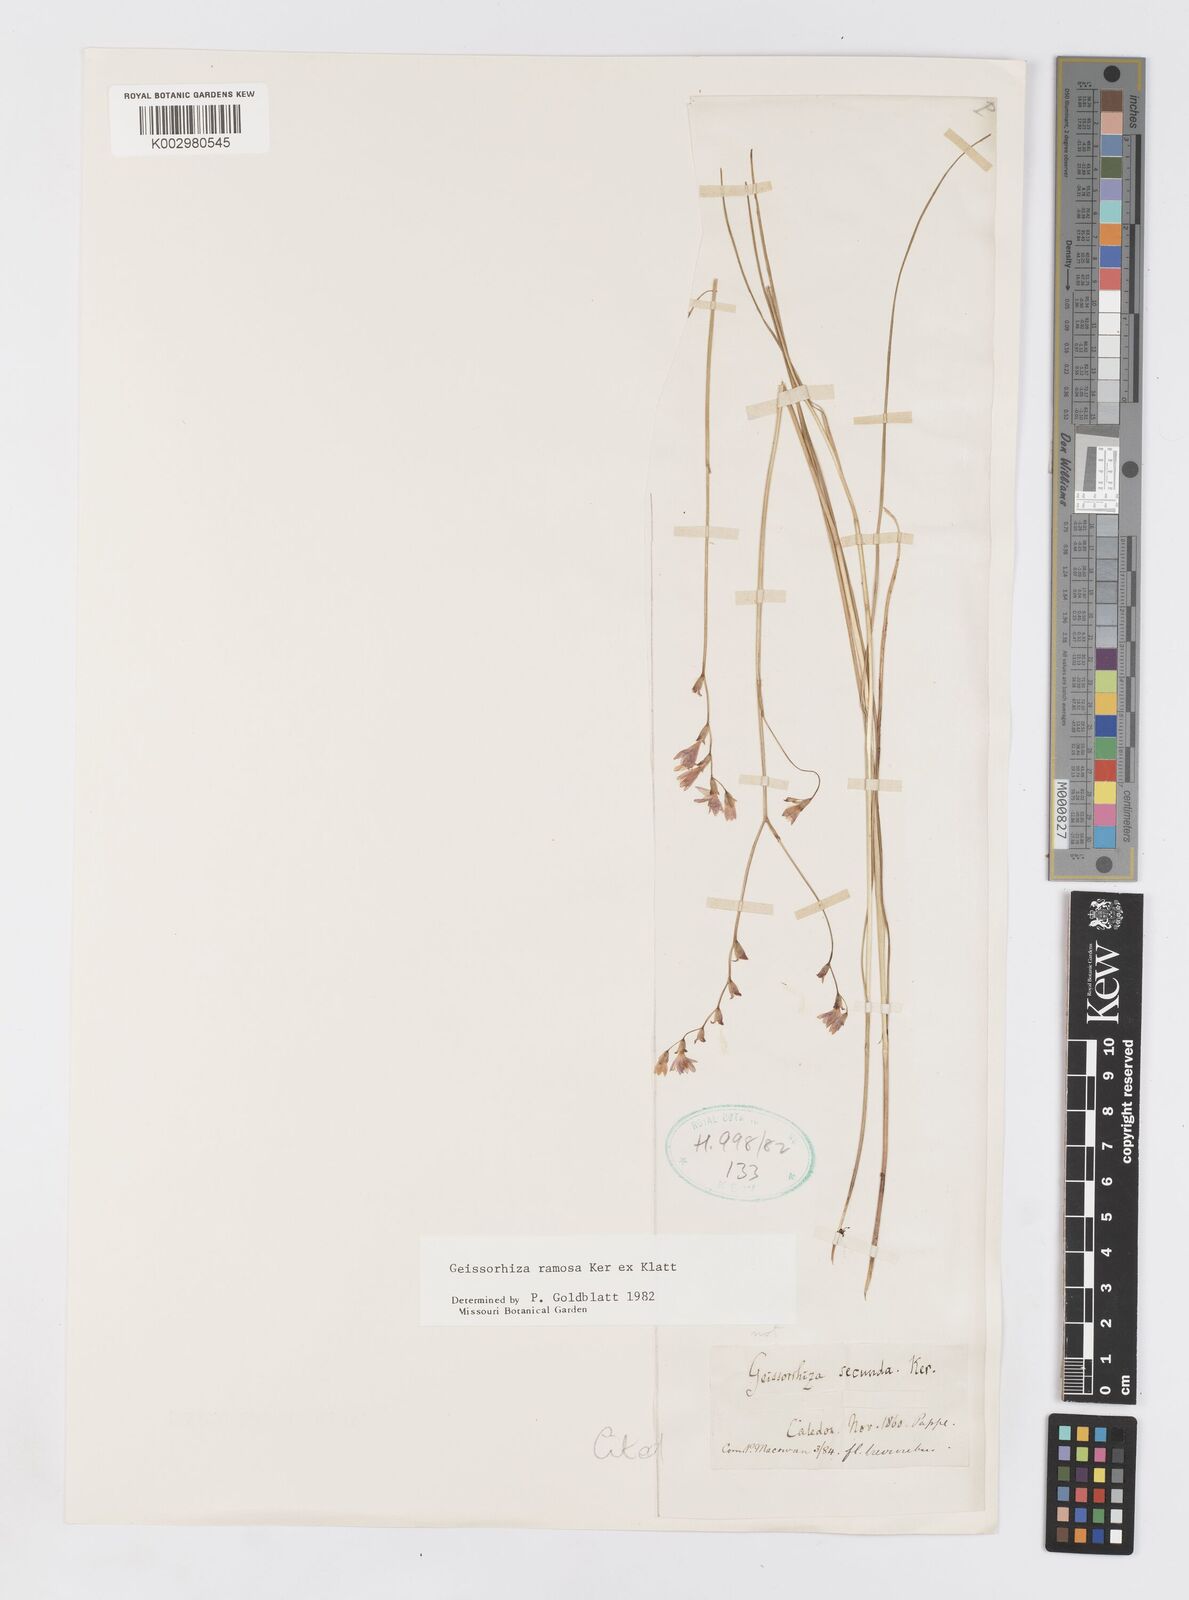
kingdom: Plantae
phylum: Tracheophyta
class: Liliopsida
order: Asparagales
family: Iridaceae
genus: Geissorhiza
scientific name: Geissorhiza ramosa
